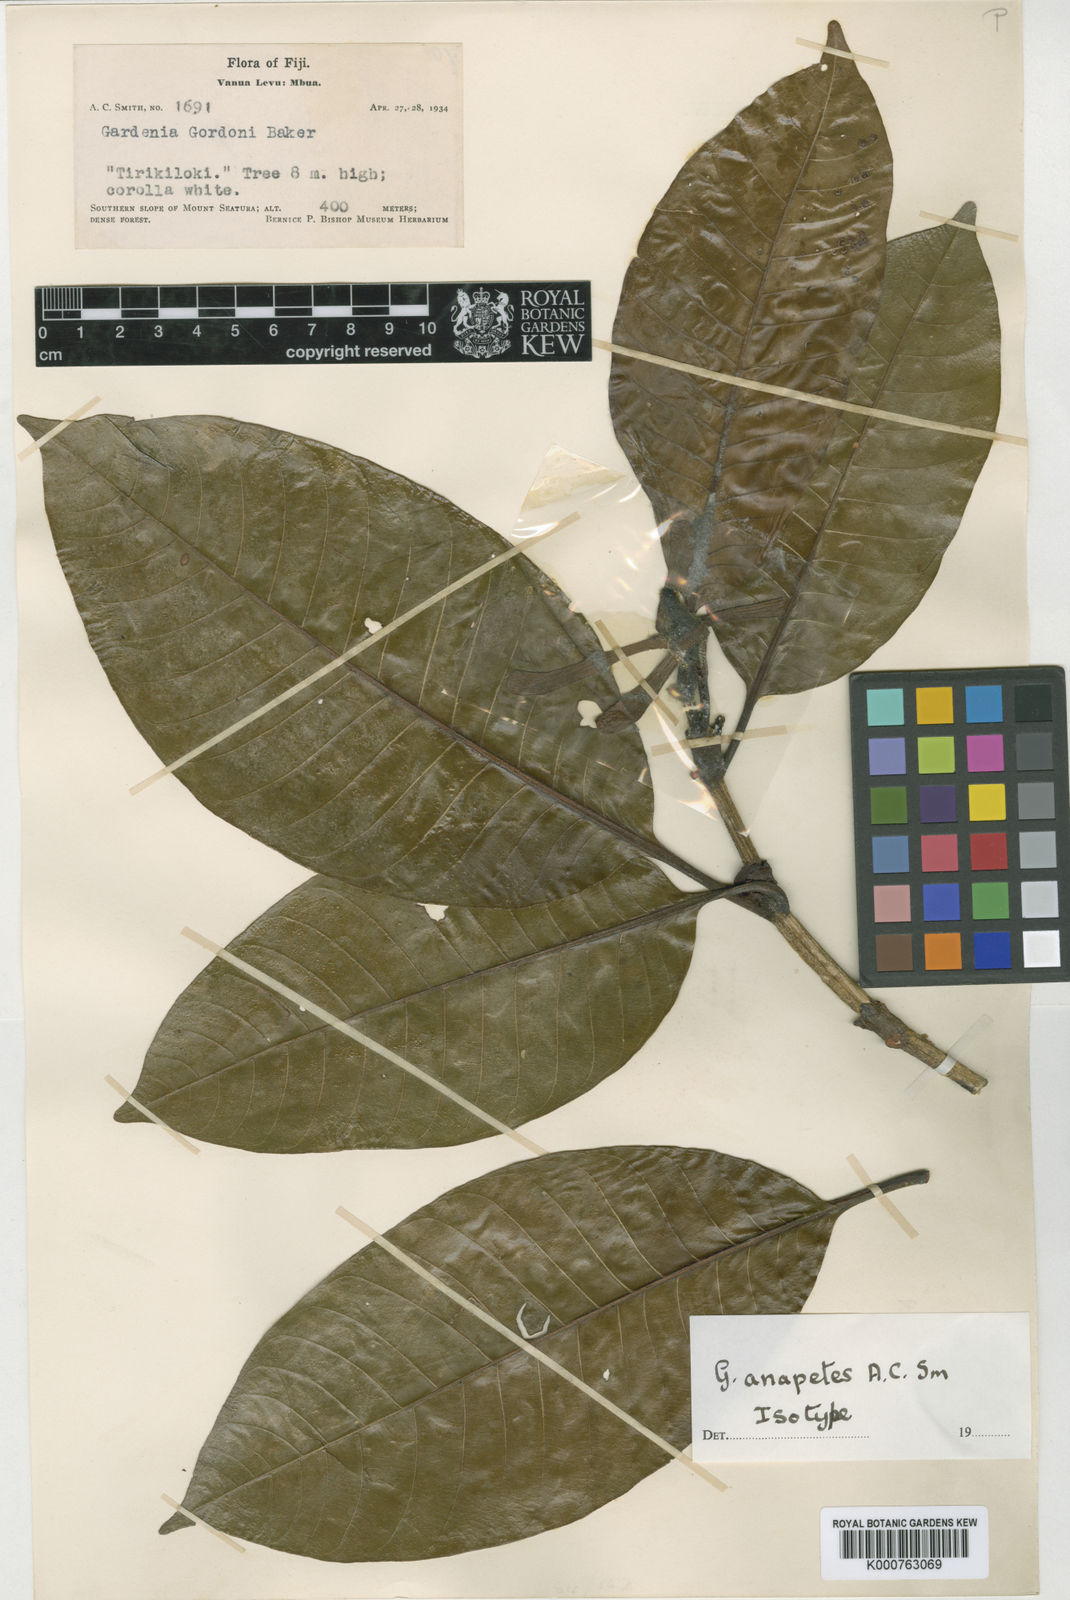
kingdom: Plantae
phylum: Tracheophyta
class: Magnoliopsida
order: Gentianales
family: Rubiaceae
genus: Gardenia
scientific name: Gardenia anapetes
